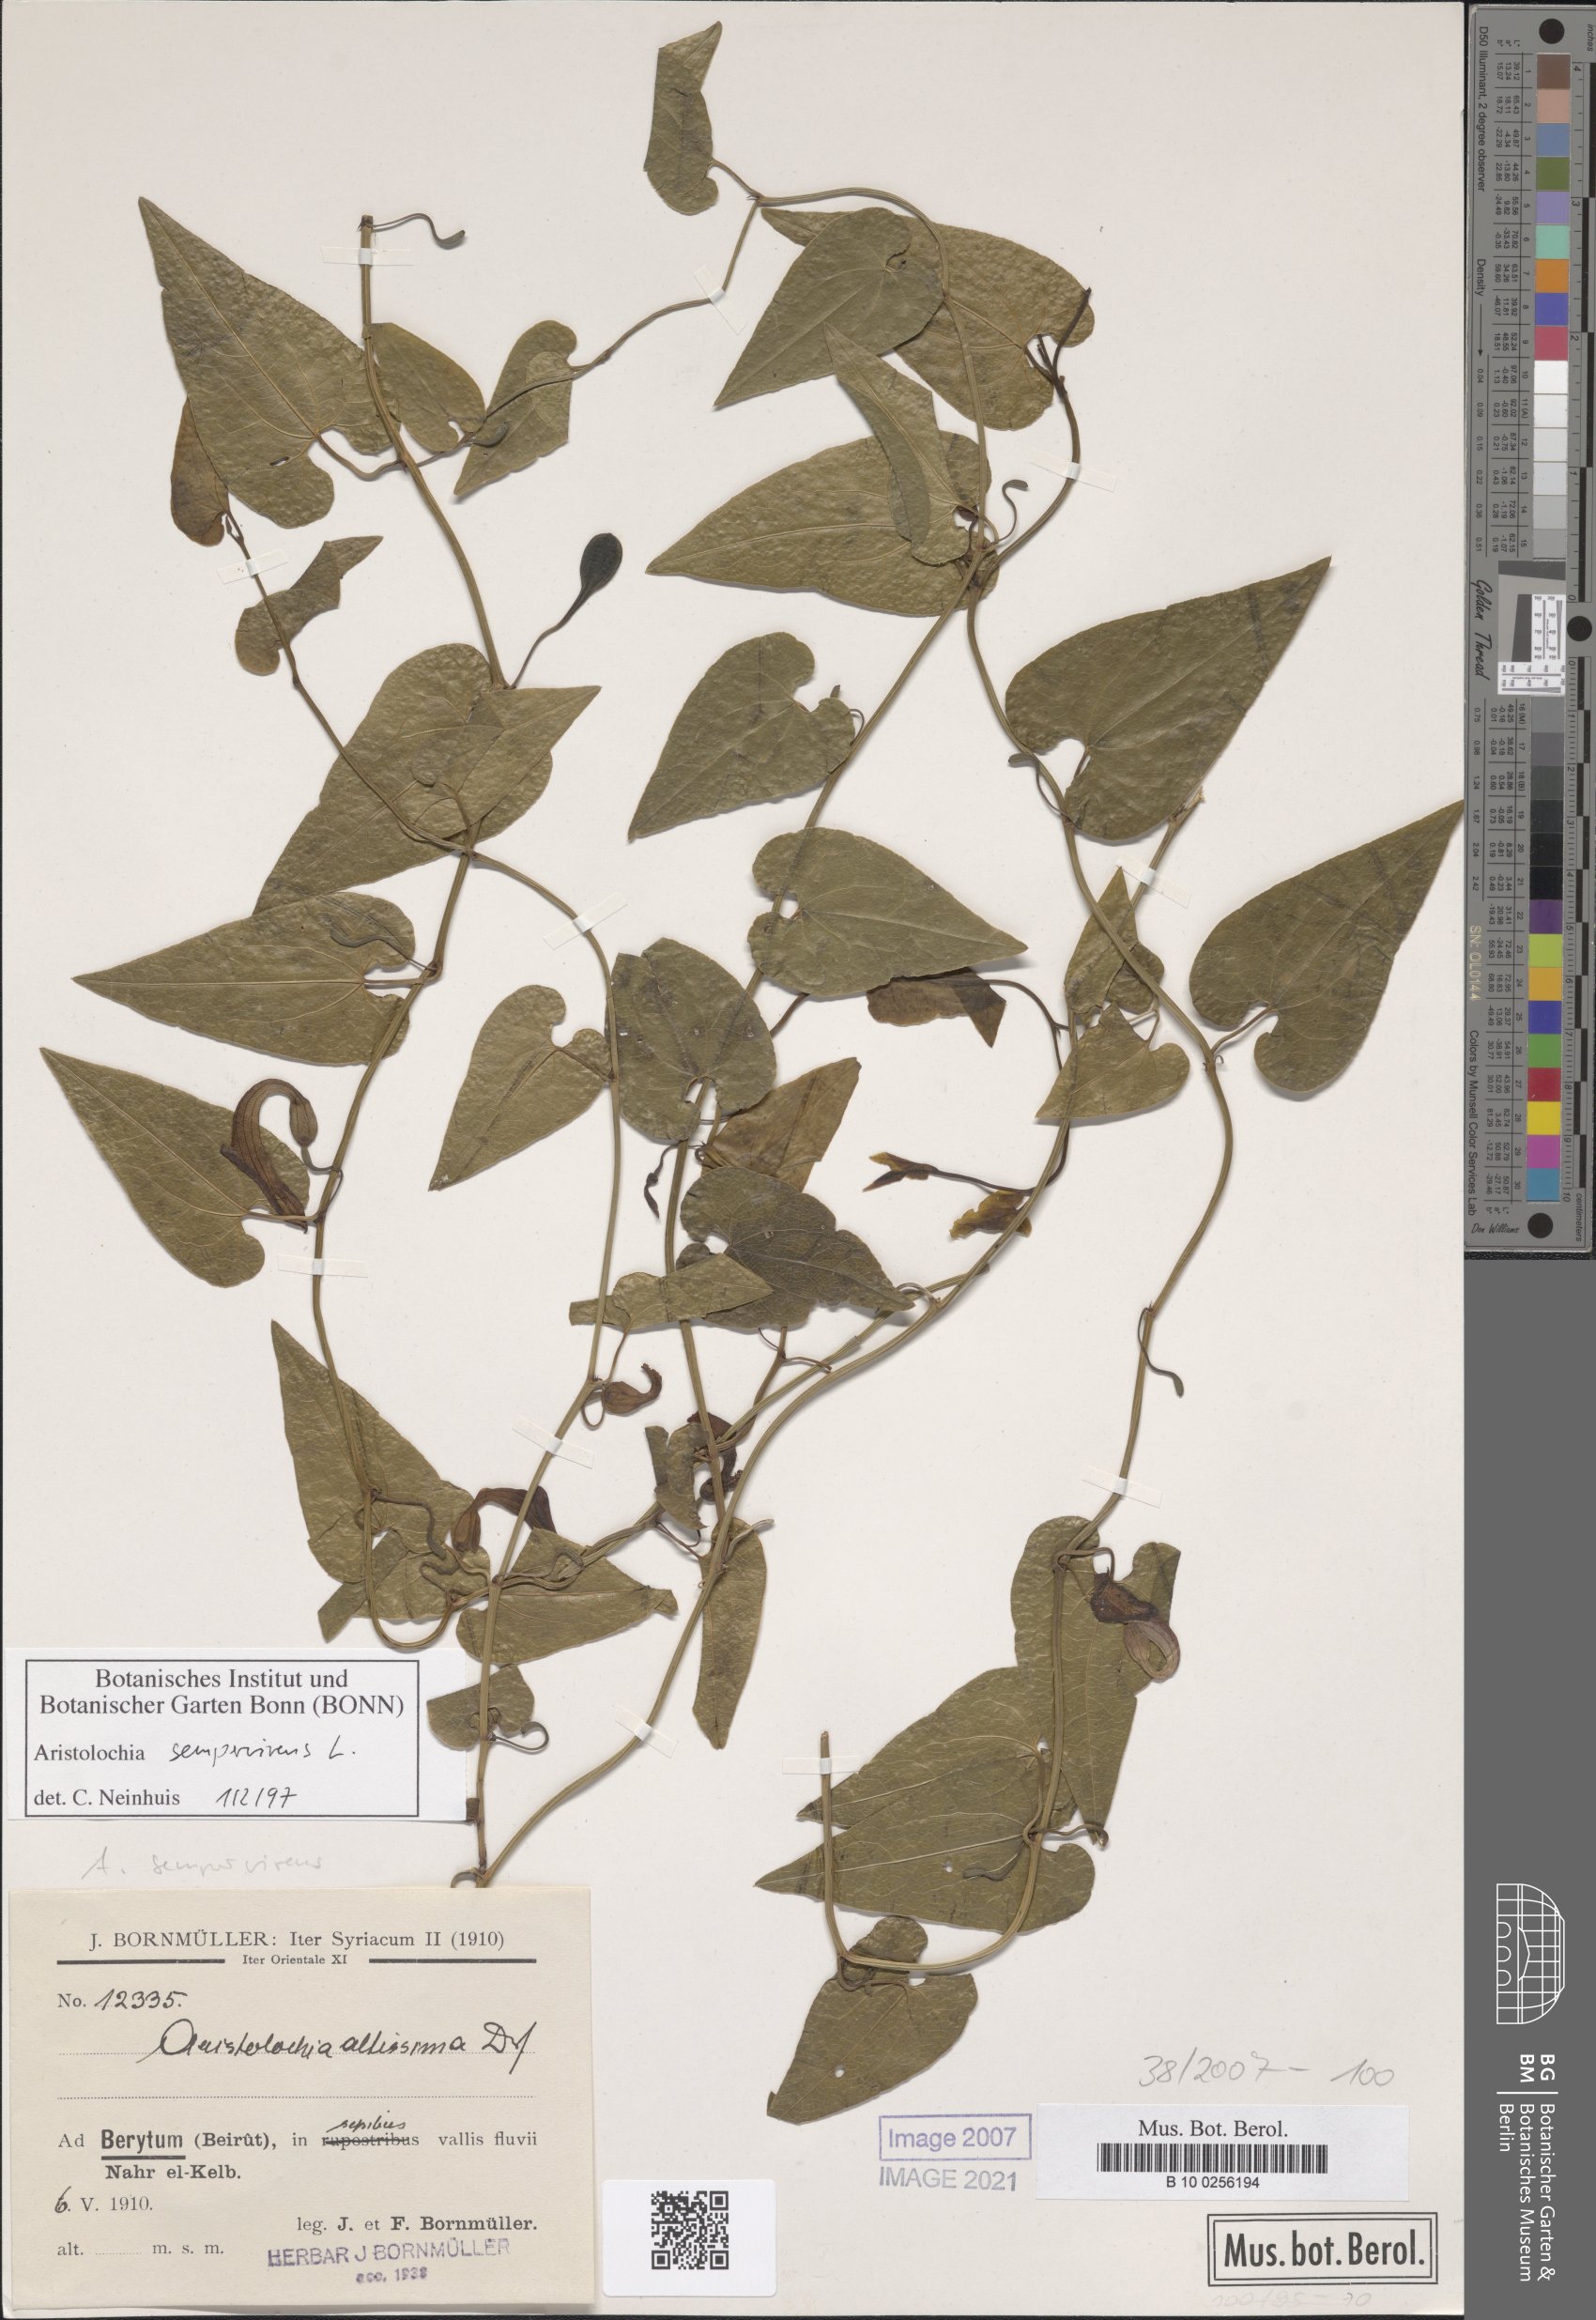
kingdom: Plantae
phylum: Tracheophyta
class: Magnoliopsida
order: Piperales
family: Aristolochiaceae
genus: Aristolochia
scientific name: Aristolochia sempervirens
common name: Long birthwort
